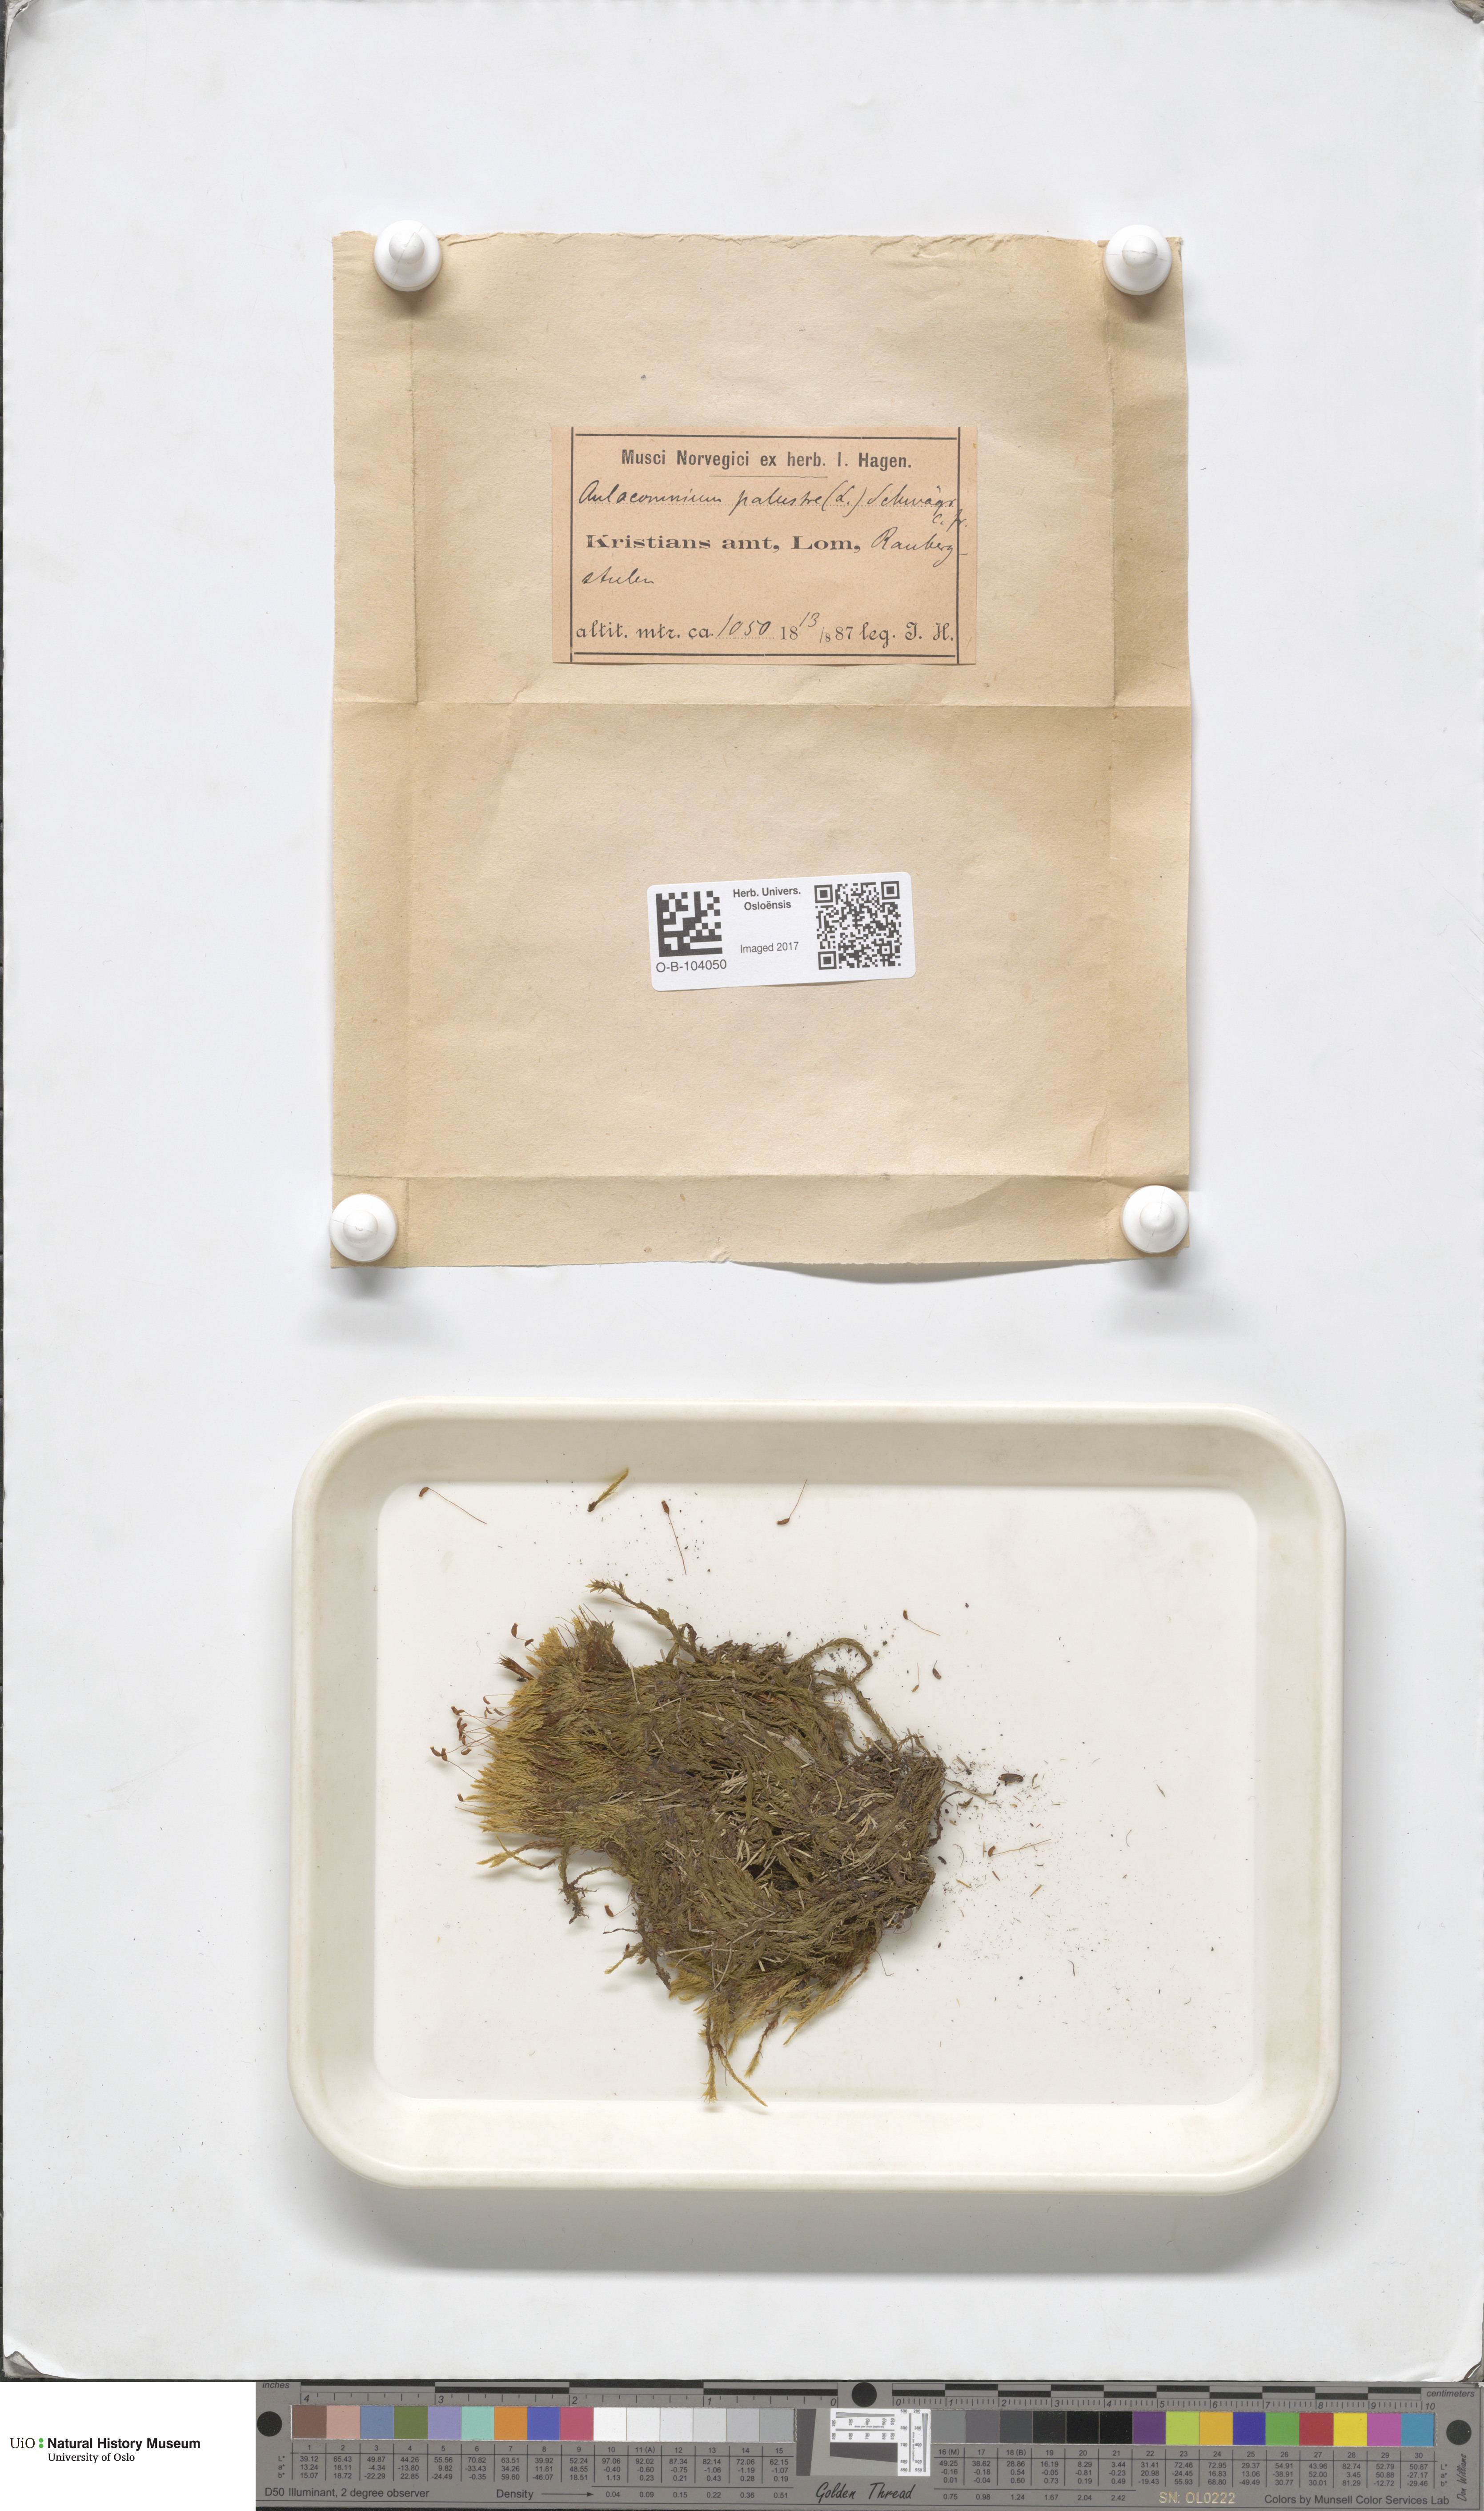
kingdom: Plantae
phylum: Bryophyta
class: Bryopsida
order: Aulacomniales
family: Aulacomniaceae
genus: Aulacomnium
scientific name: Aulacomnium palustre
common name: Bog groove-moss
